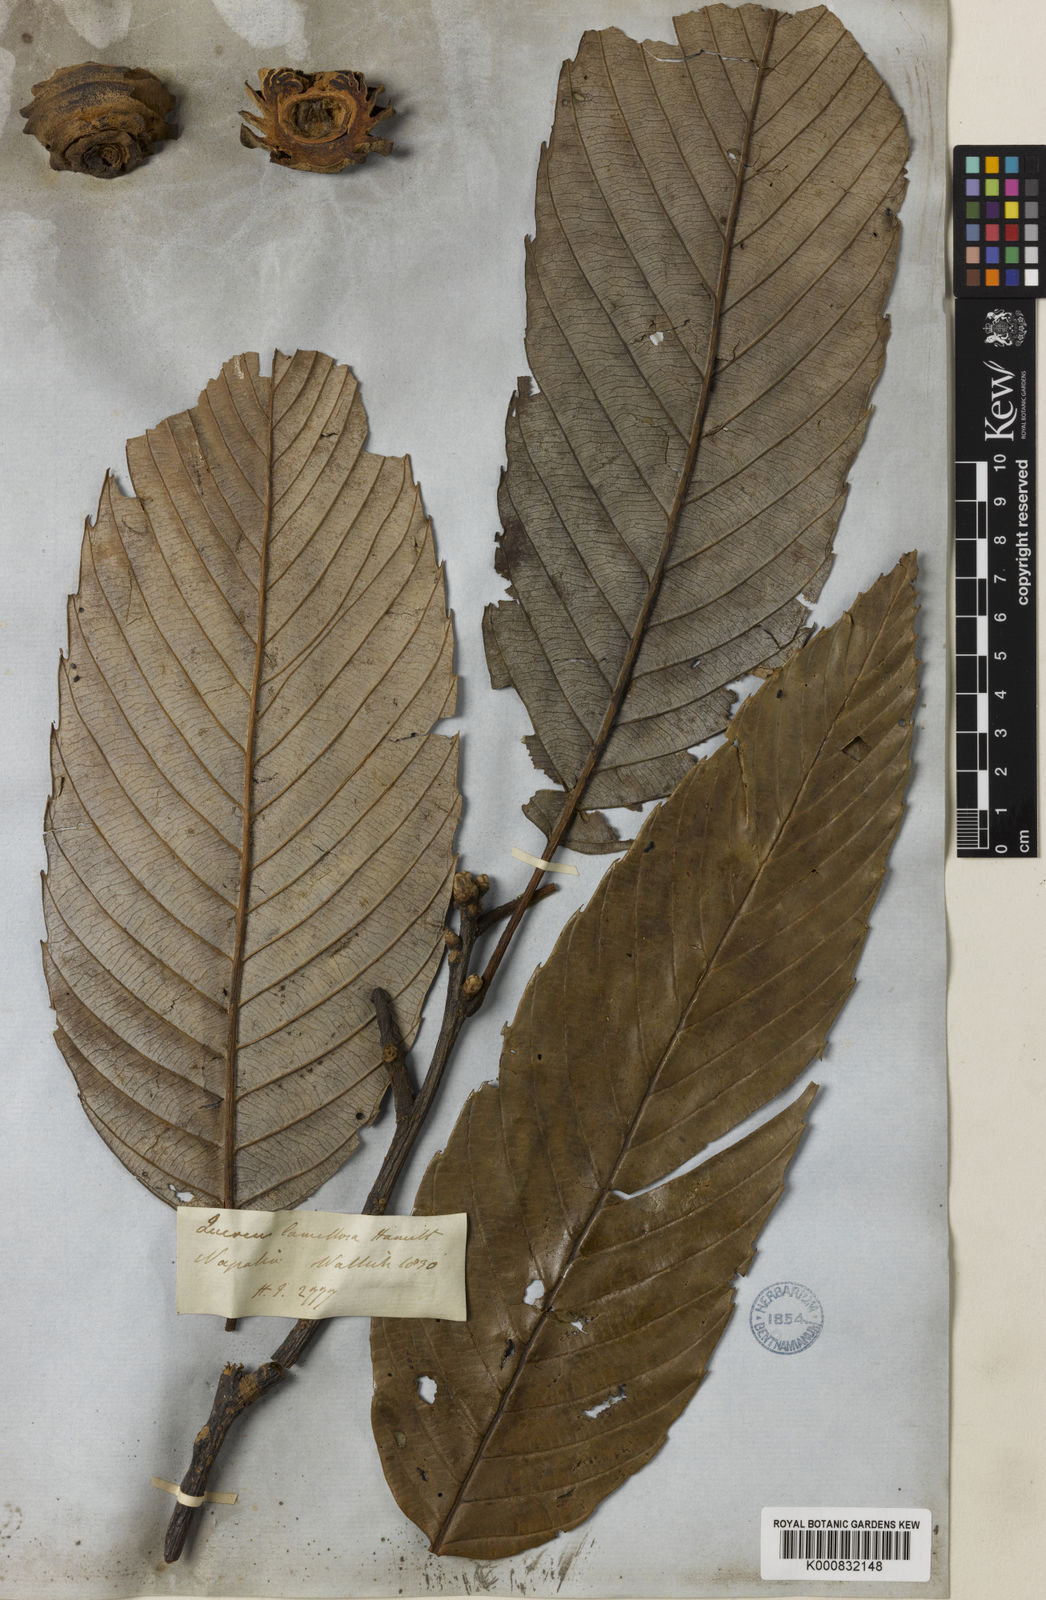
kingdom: Plantae
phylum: Tracheophyta
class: Magnoliopsida
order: Fagales
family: Fagaceae
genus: Quercus
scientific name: Quercus lamellosa
